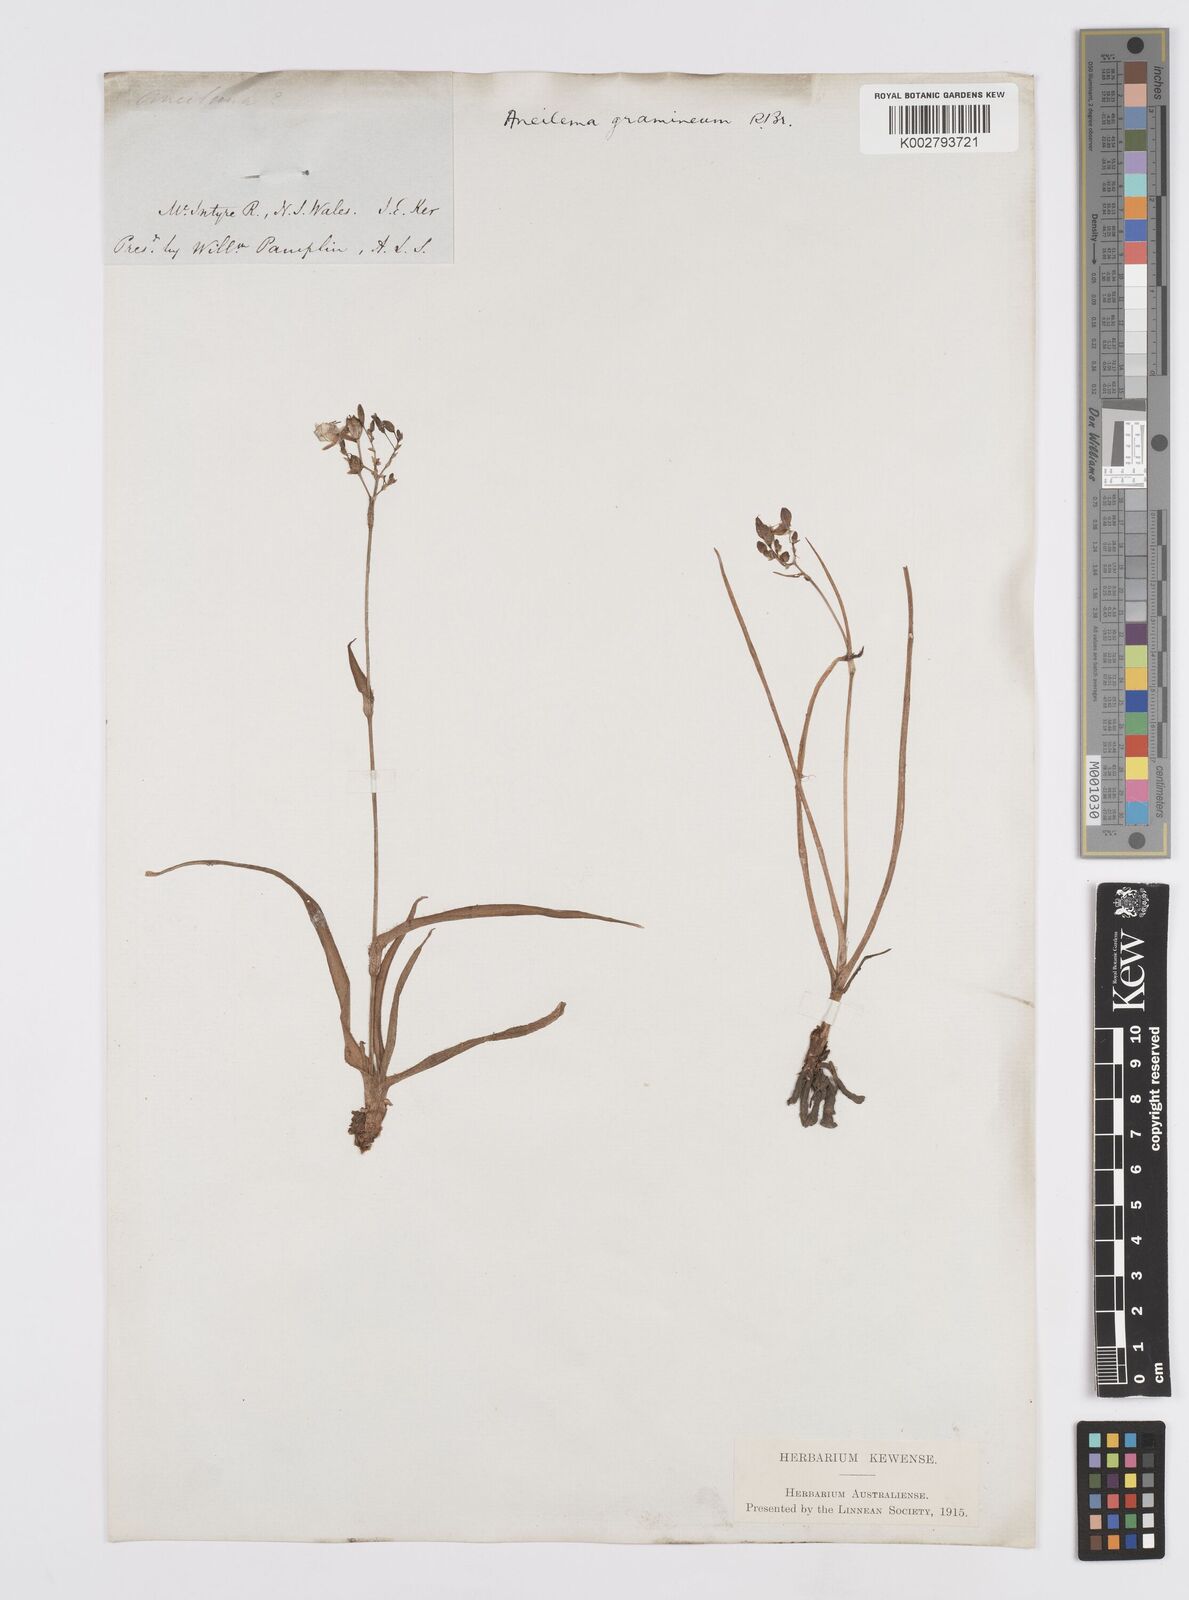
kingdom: Plantae
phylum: Tracheophyta
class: Liliopsida
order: Commelinales
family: Commelinaceae
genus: Murdannia
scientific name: Murdannia graminea
